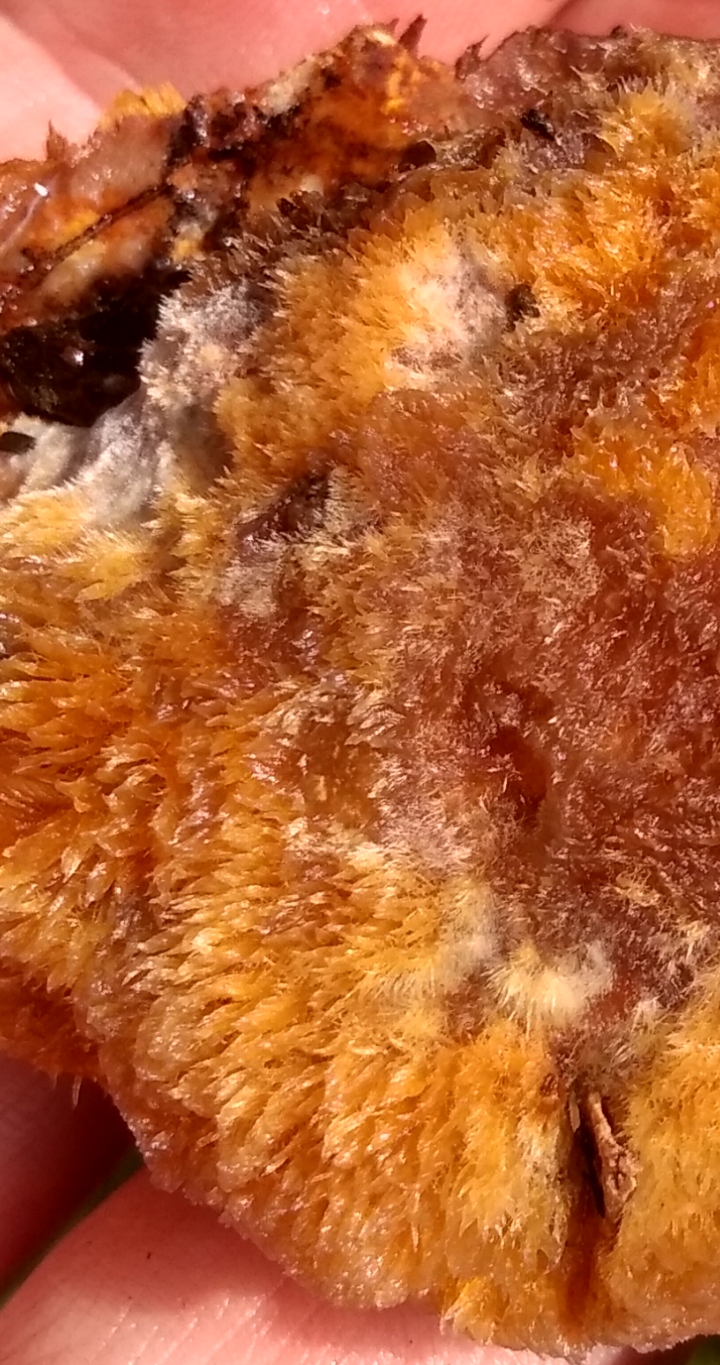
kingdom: Fungi
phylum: Basidiomycota
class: Agaricomycetes
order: Hymenochaetales
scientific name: Hymenochaetales
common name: børstesvampordenen
